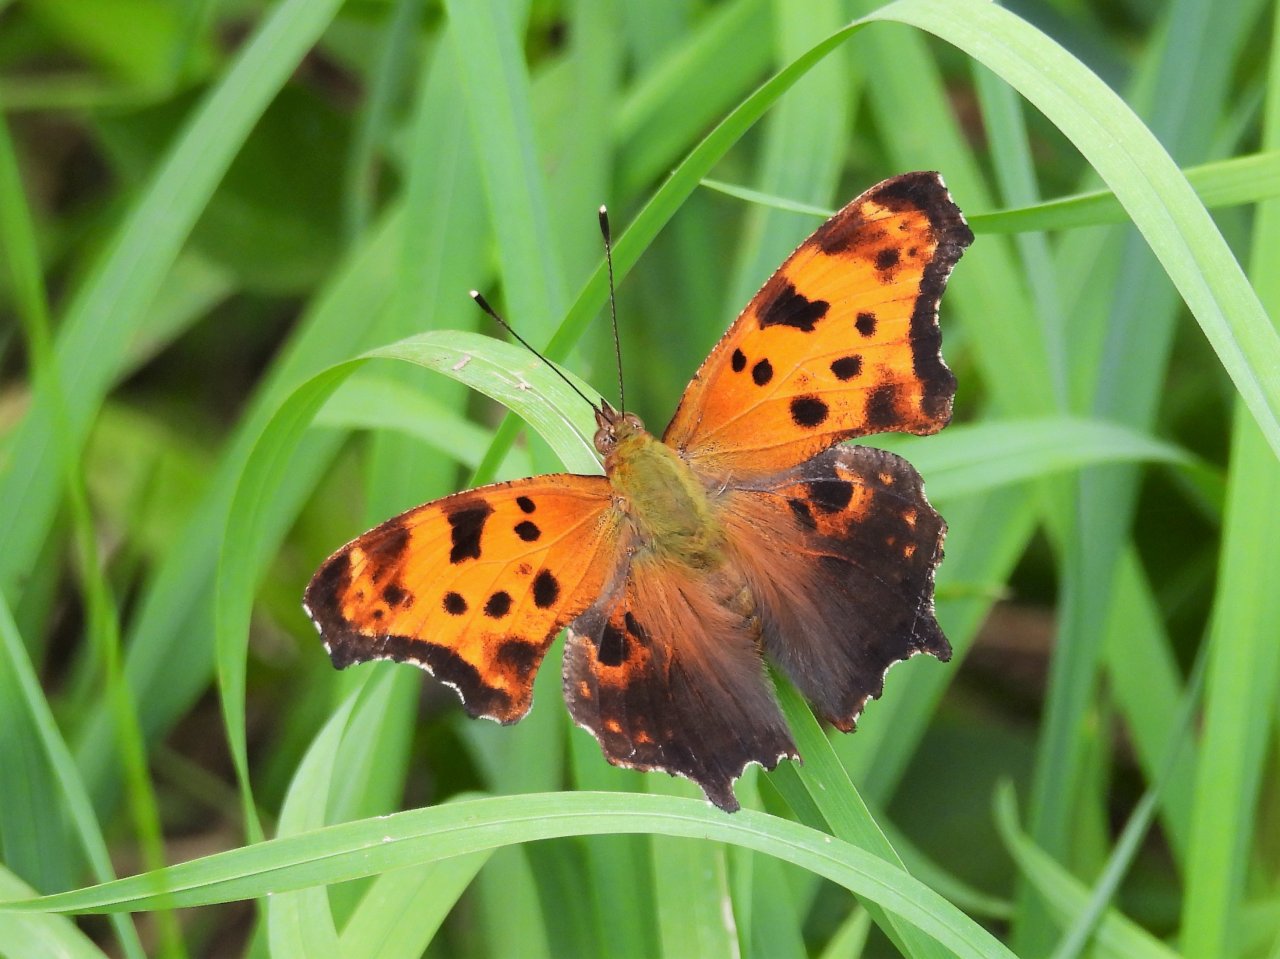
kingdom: Animalia
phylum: Arthropoda
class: Insecta
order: Lepidoptera
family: Nymphalidae
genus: Polygonia
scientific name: Polygonia
